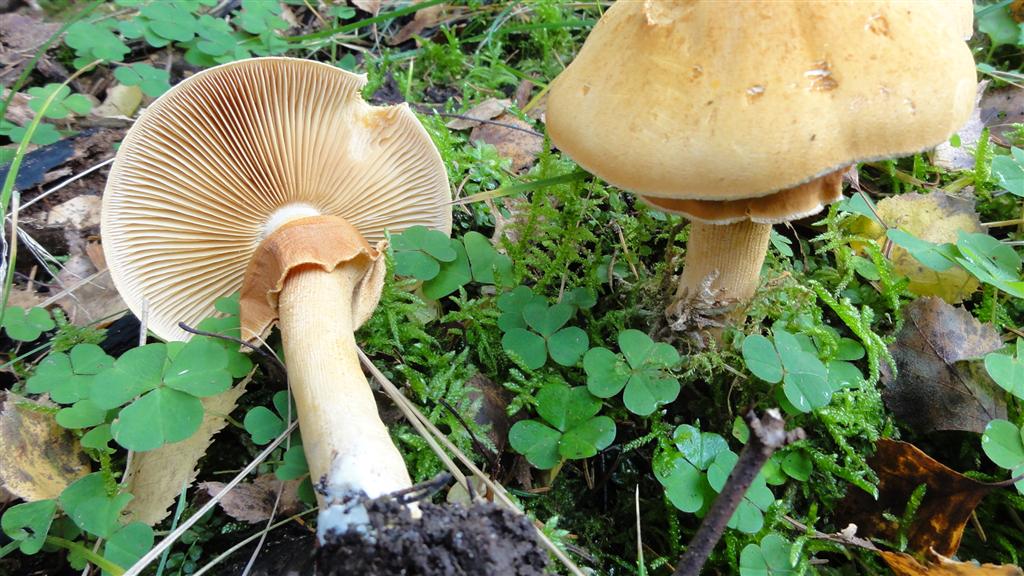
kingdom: Fungi
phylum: Basidiomycota
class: Agaricomycetes
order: Agaricales
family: Tricholomataceae
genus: Phaeolepiota
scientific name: Phaeolepiota aurea
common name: gyldenhat
